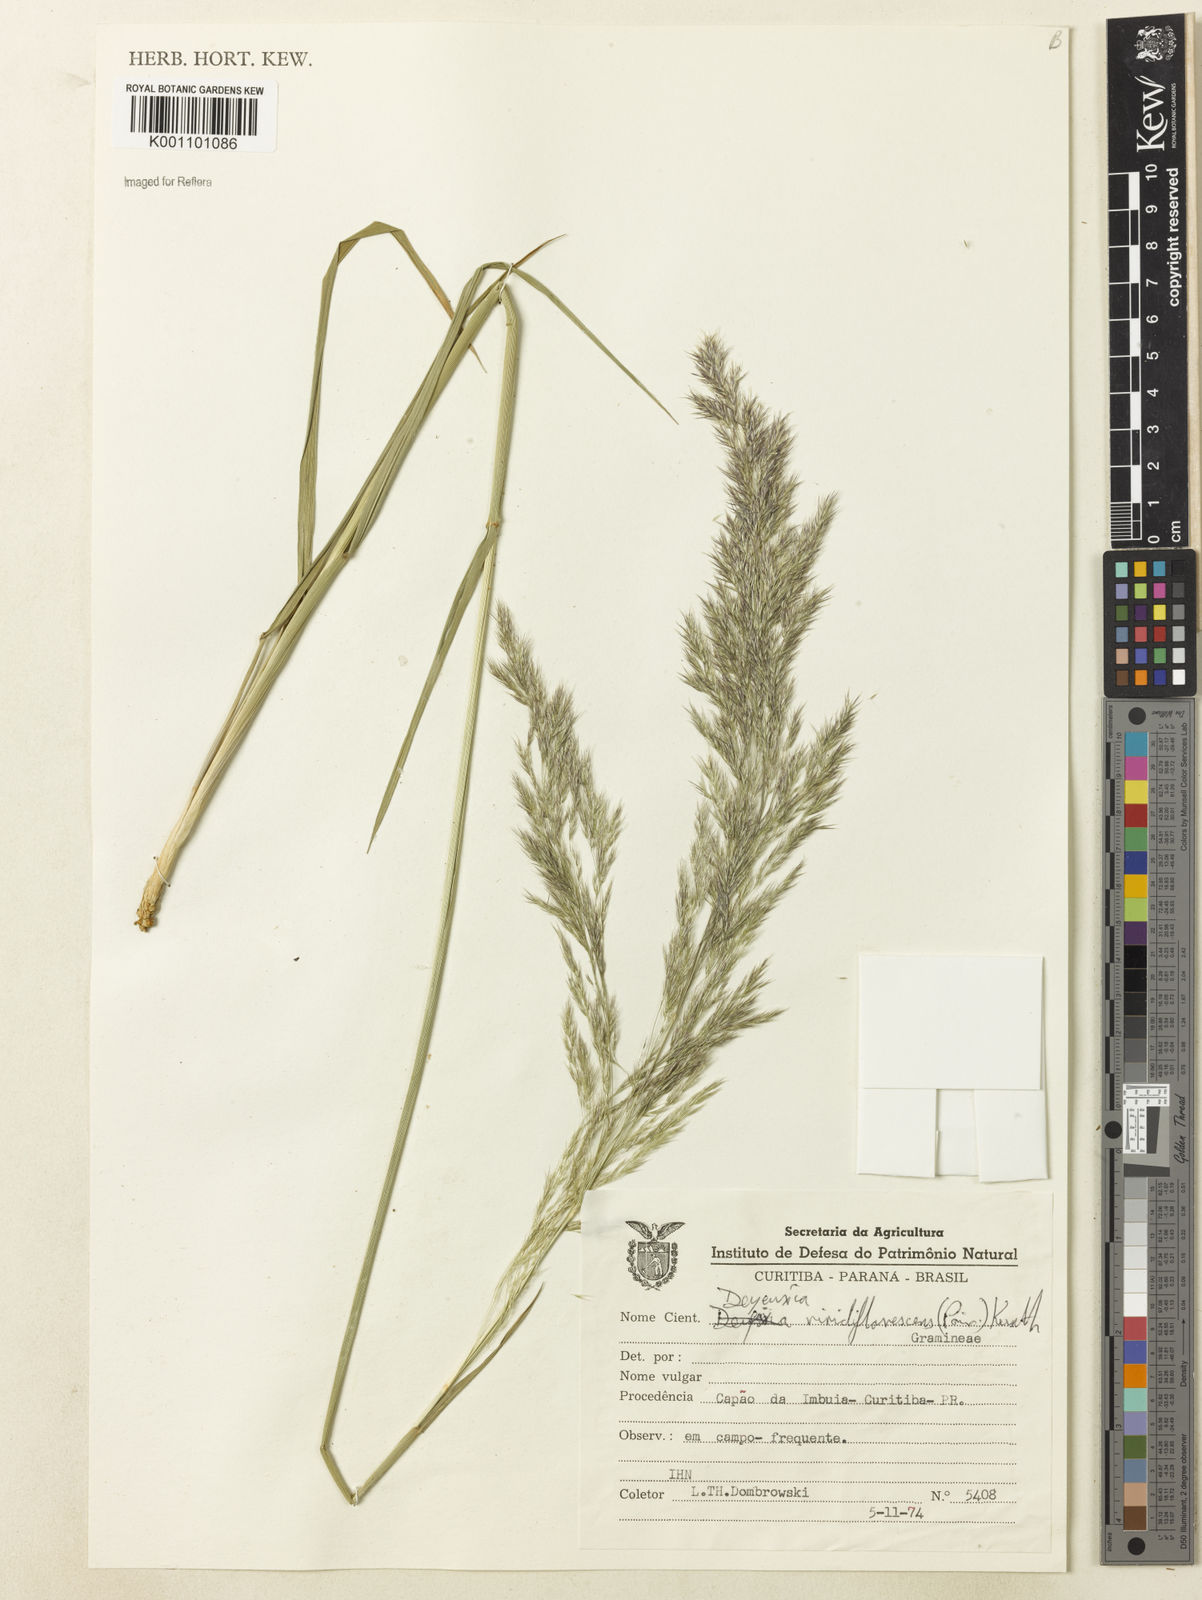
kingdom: Plantae
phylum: Tracheophyta
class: Liliopsida
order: Poales
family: Poaceae
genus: Cinnagrostis
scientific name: Cinnagrostis viridiflavescens
